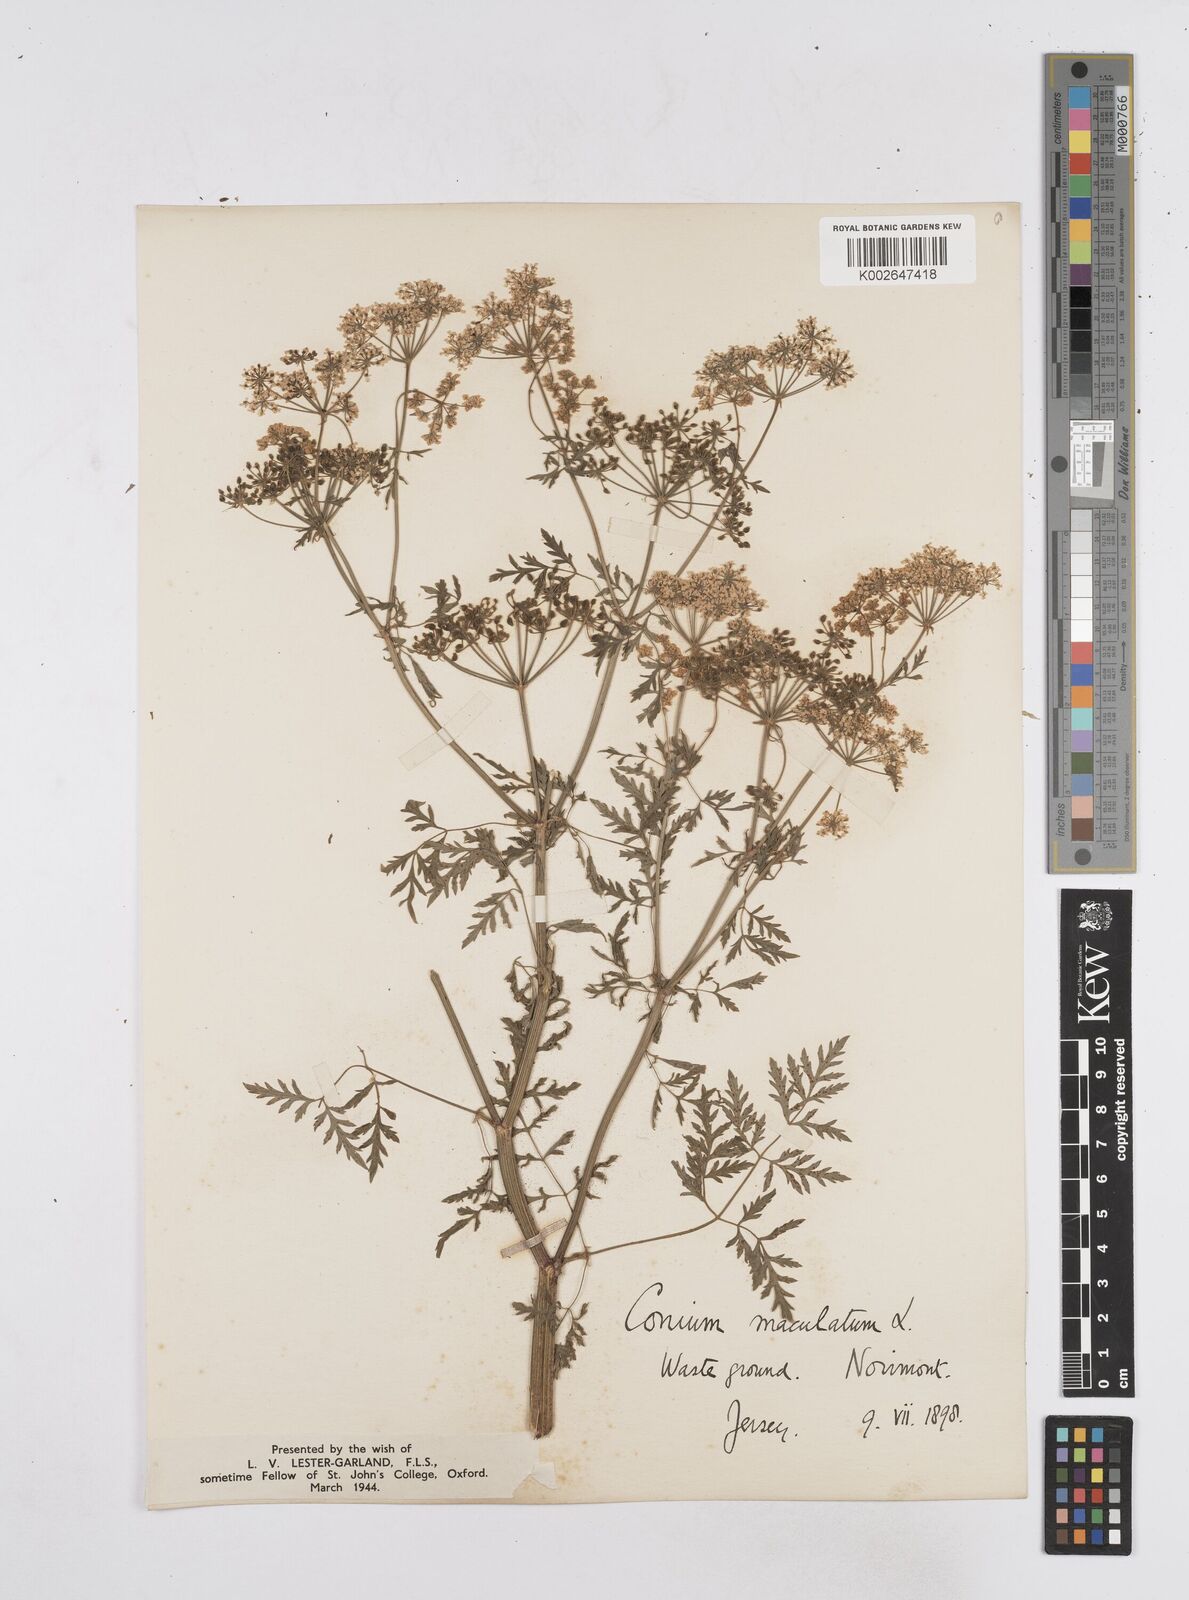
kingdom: Plantae
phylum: Tracheophyta
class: Magnoliopsida
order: Apiales
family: Apiaceae
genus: Conium
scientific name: Conium maculatum
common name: Hemlock
